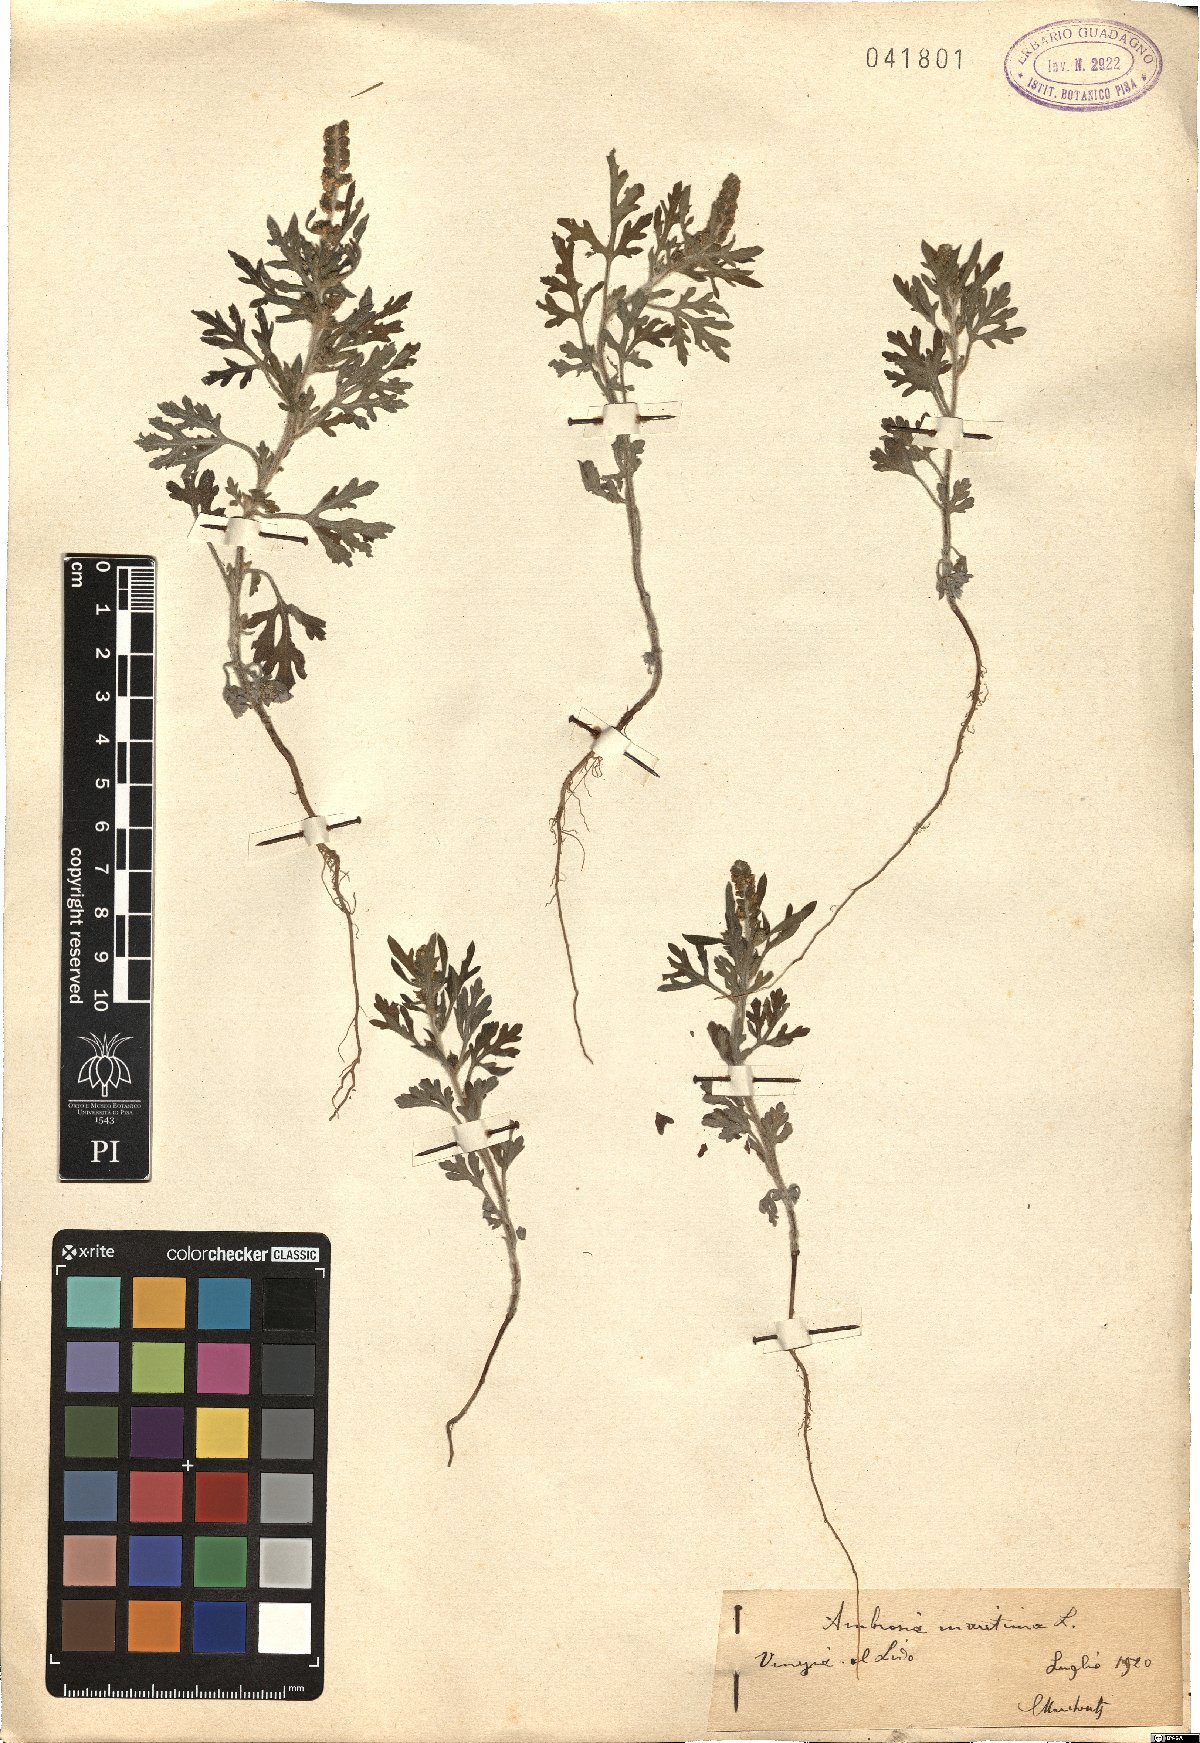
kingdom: Plantae
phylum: Tracheophyta
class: Magnoliopsida
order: Asterales
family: Asteraceae
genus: Ambrosia
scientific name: Ambrosia maritima
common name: Sea ambrosia
